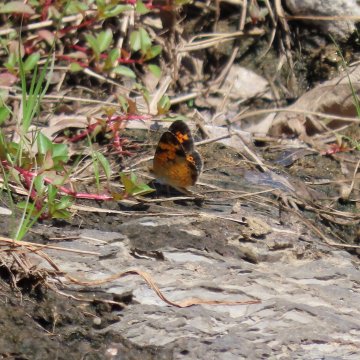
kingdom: Animalia
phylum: Arthropoda
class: Insecta
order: Lepidoptera
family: Nymphalidae
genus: Phyciodes
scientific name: Phyciodes tharos
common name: Pearl Crescent
